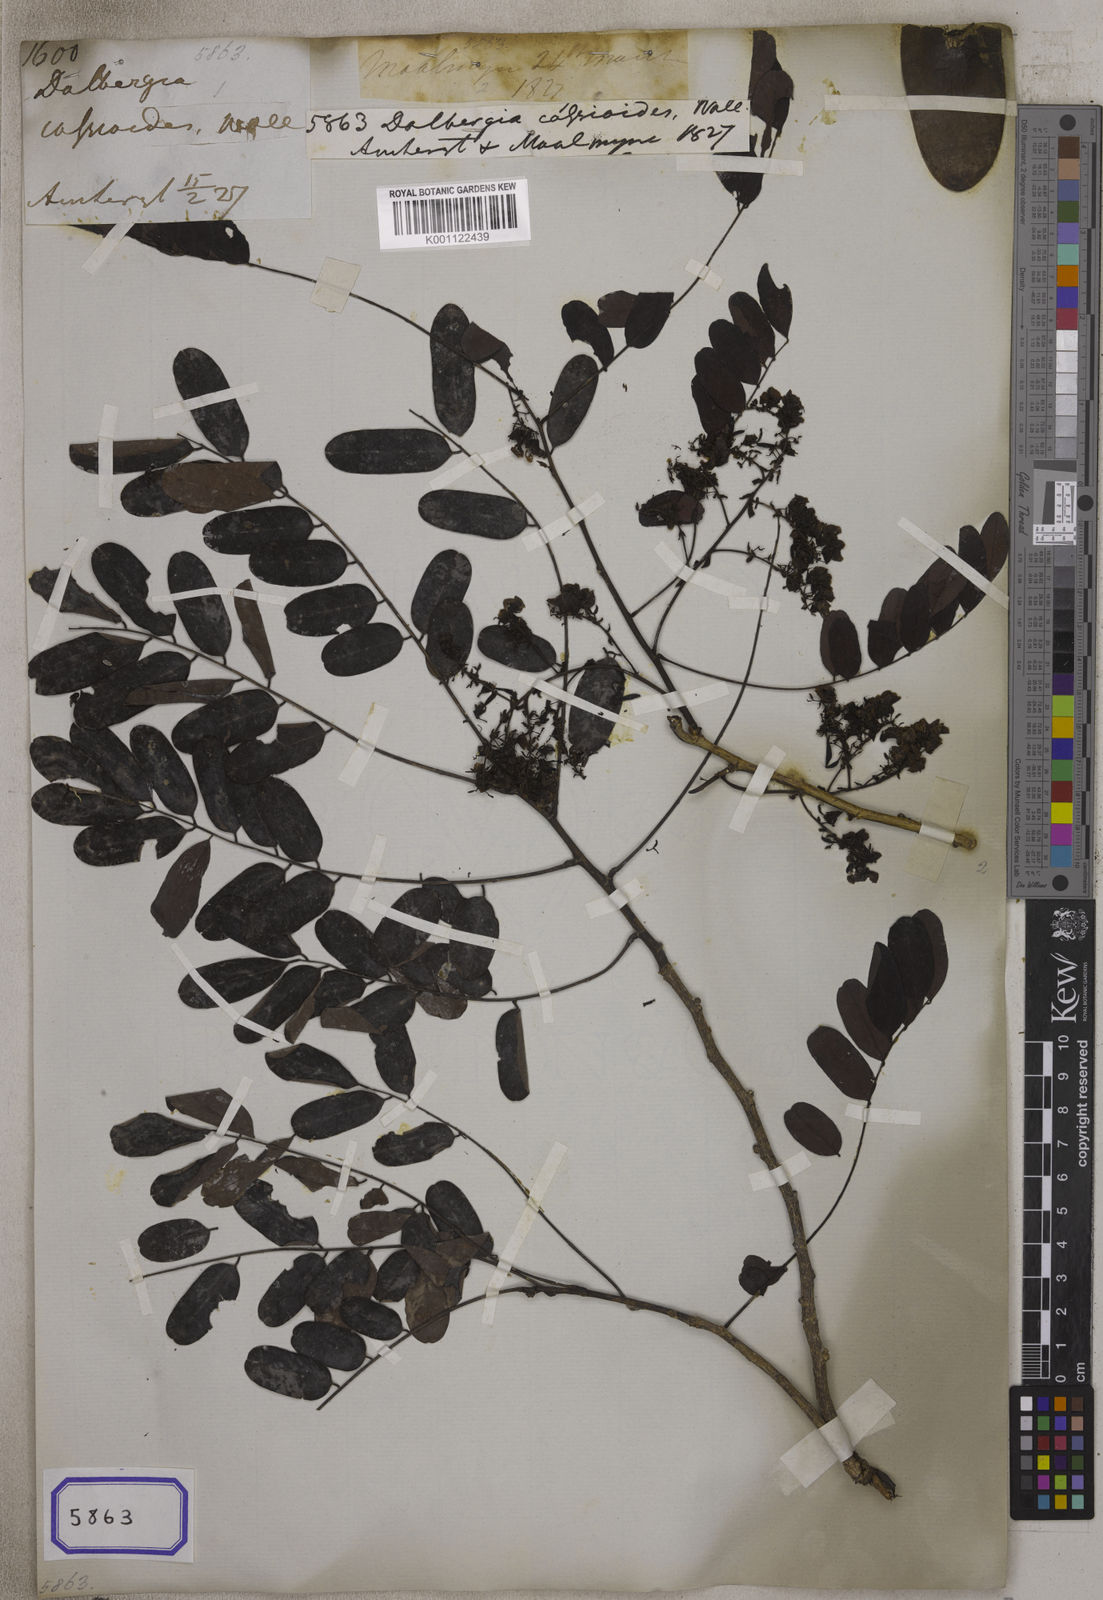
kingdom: Plantae
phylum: Tracheophyta
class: Magnoliopsida
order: Fabales
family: Fabaceae
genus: Dalbergia
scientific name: Dalbergia
